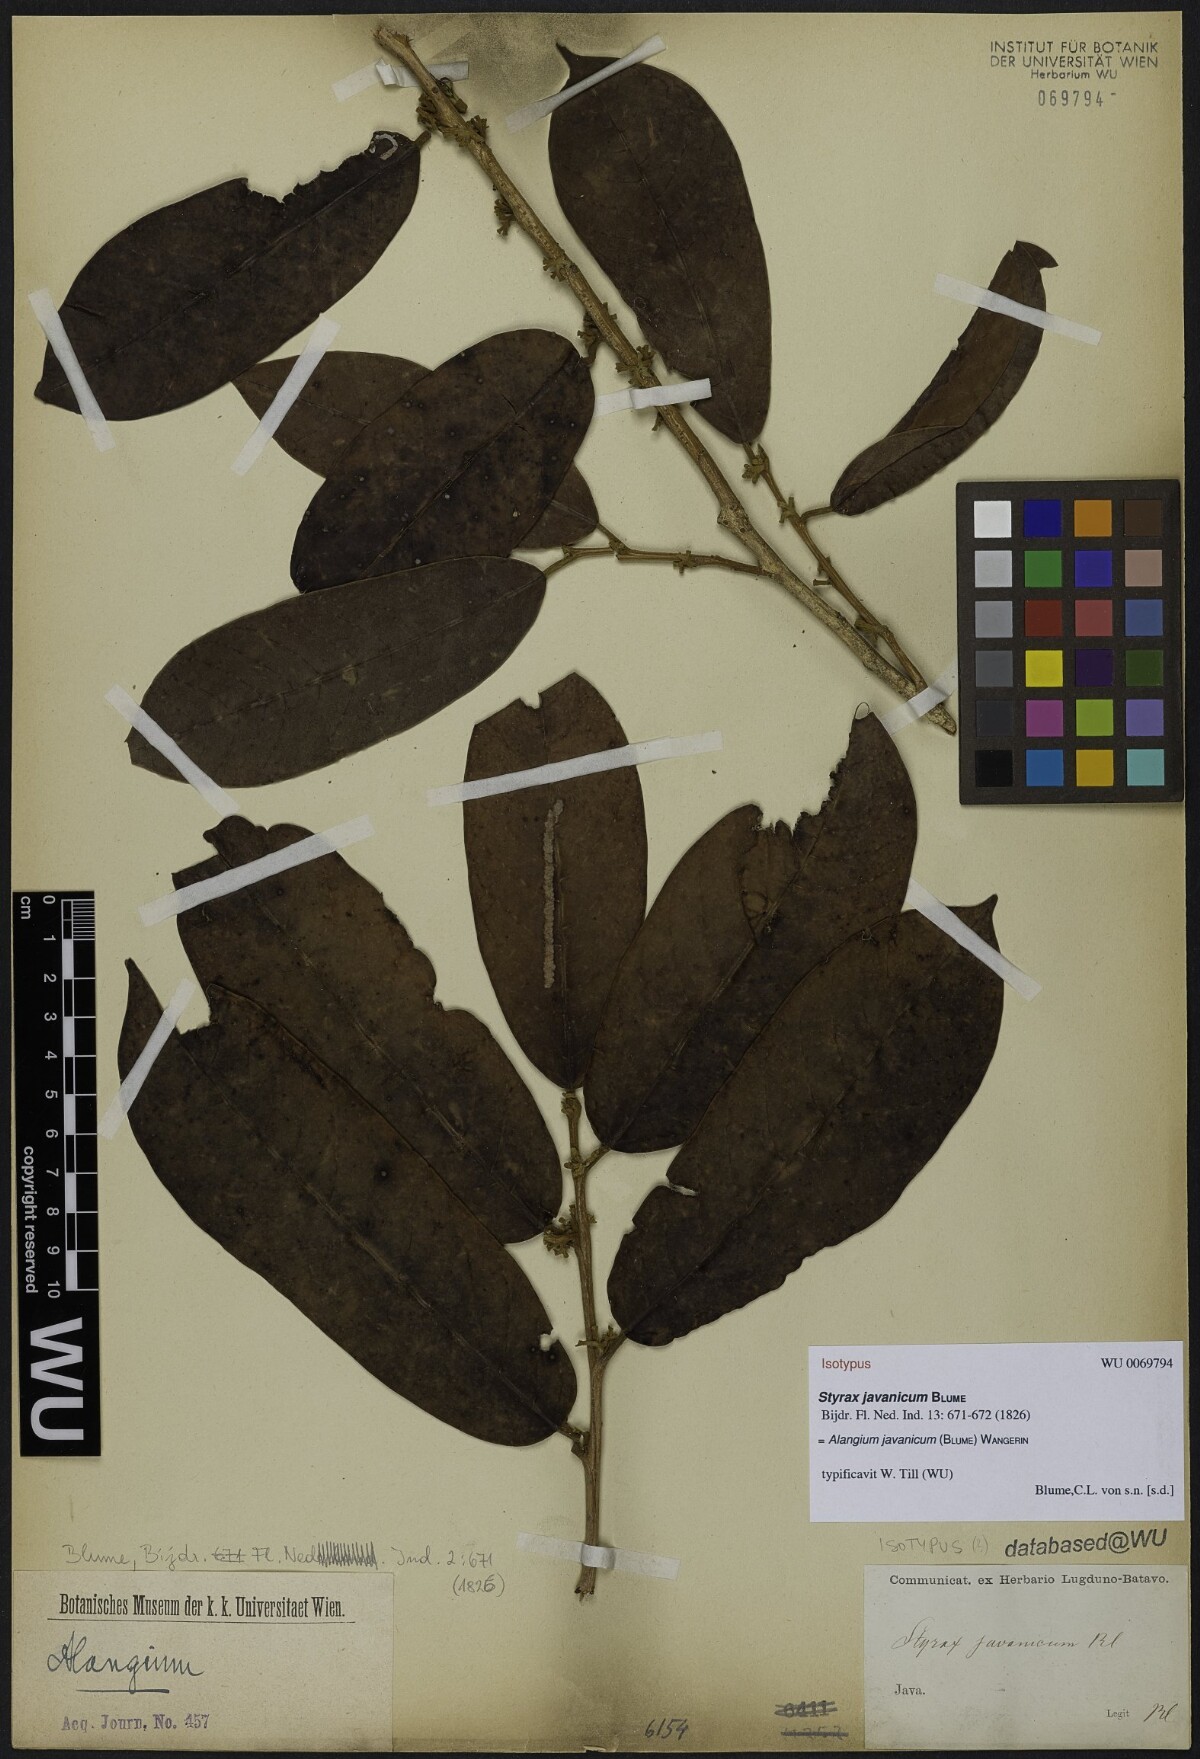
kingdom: Plantae
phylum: Tracheophyta
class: Magnoliopsida
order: Cornales
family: Cornaceae
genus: Alangium
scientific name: Alangium javanicum
